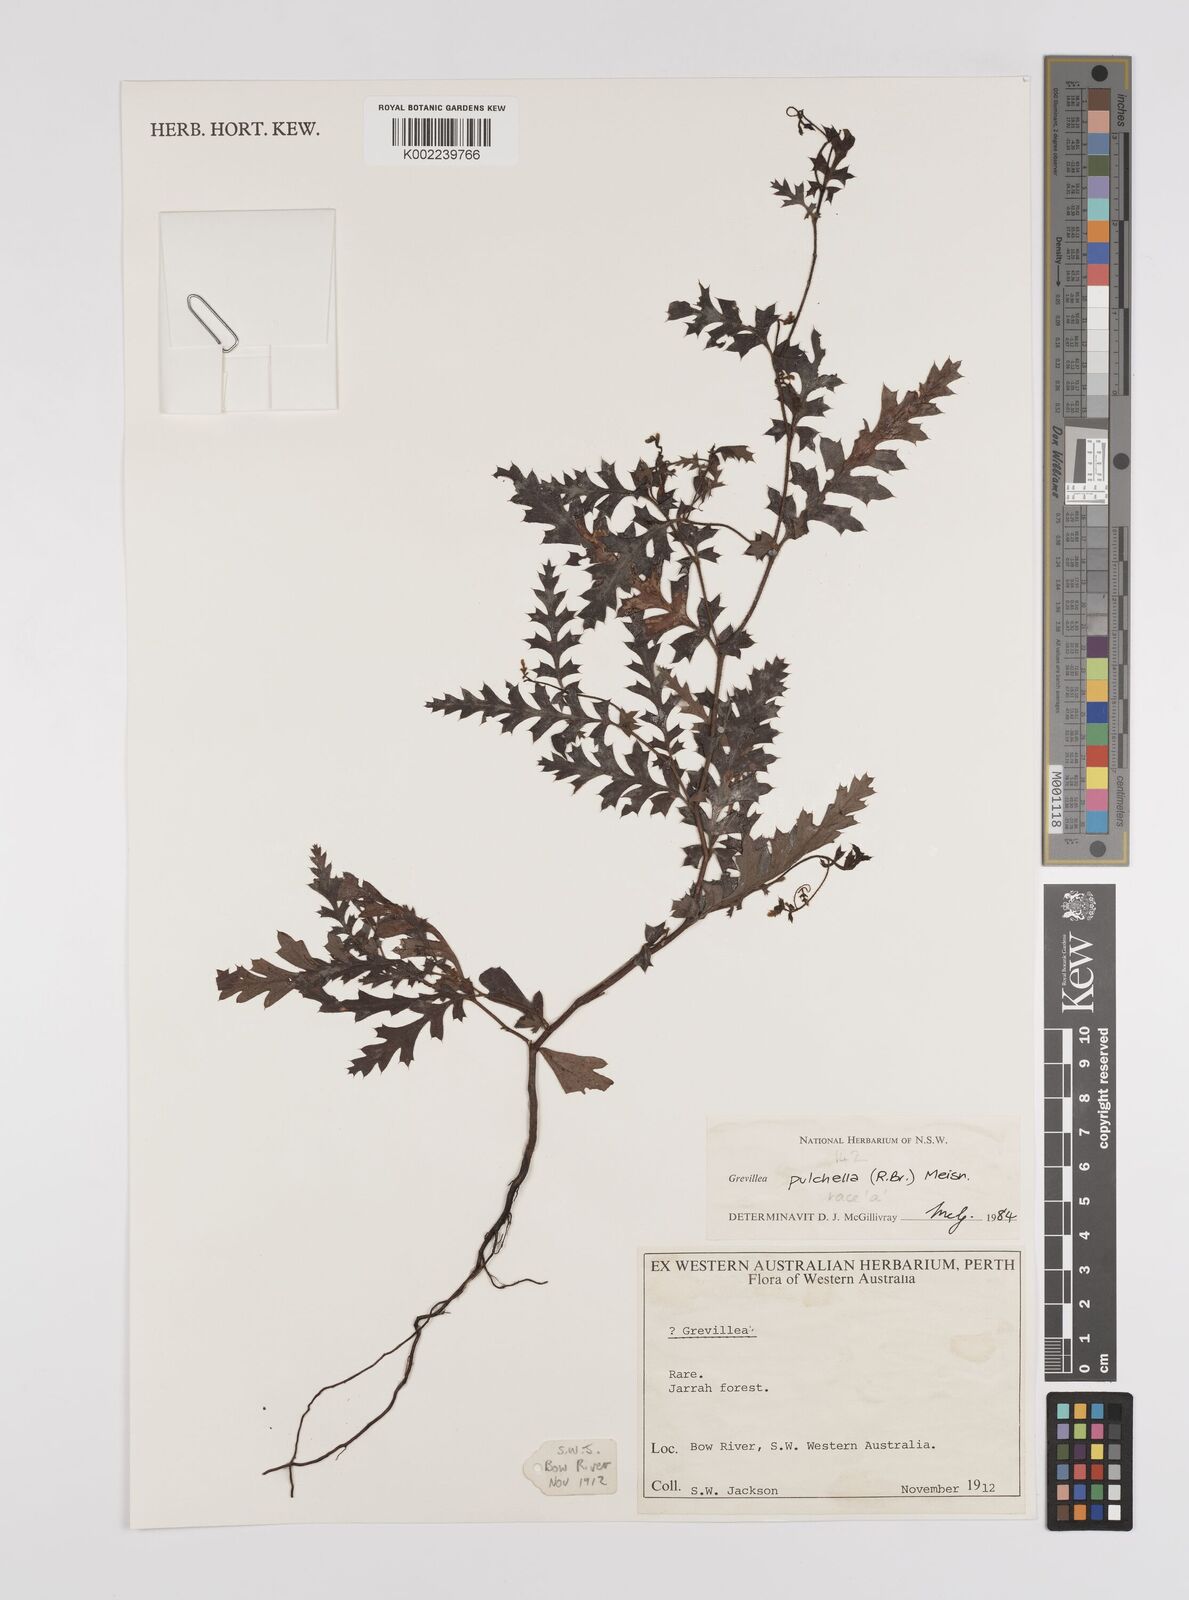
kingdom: Plantae
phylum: Tracheophyta
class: Magnoliopsida
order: Proteales
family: Proteaceae
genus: Grevillea
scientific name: Grevillea pulchella
